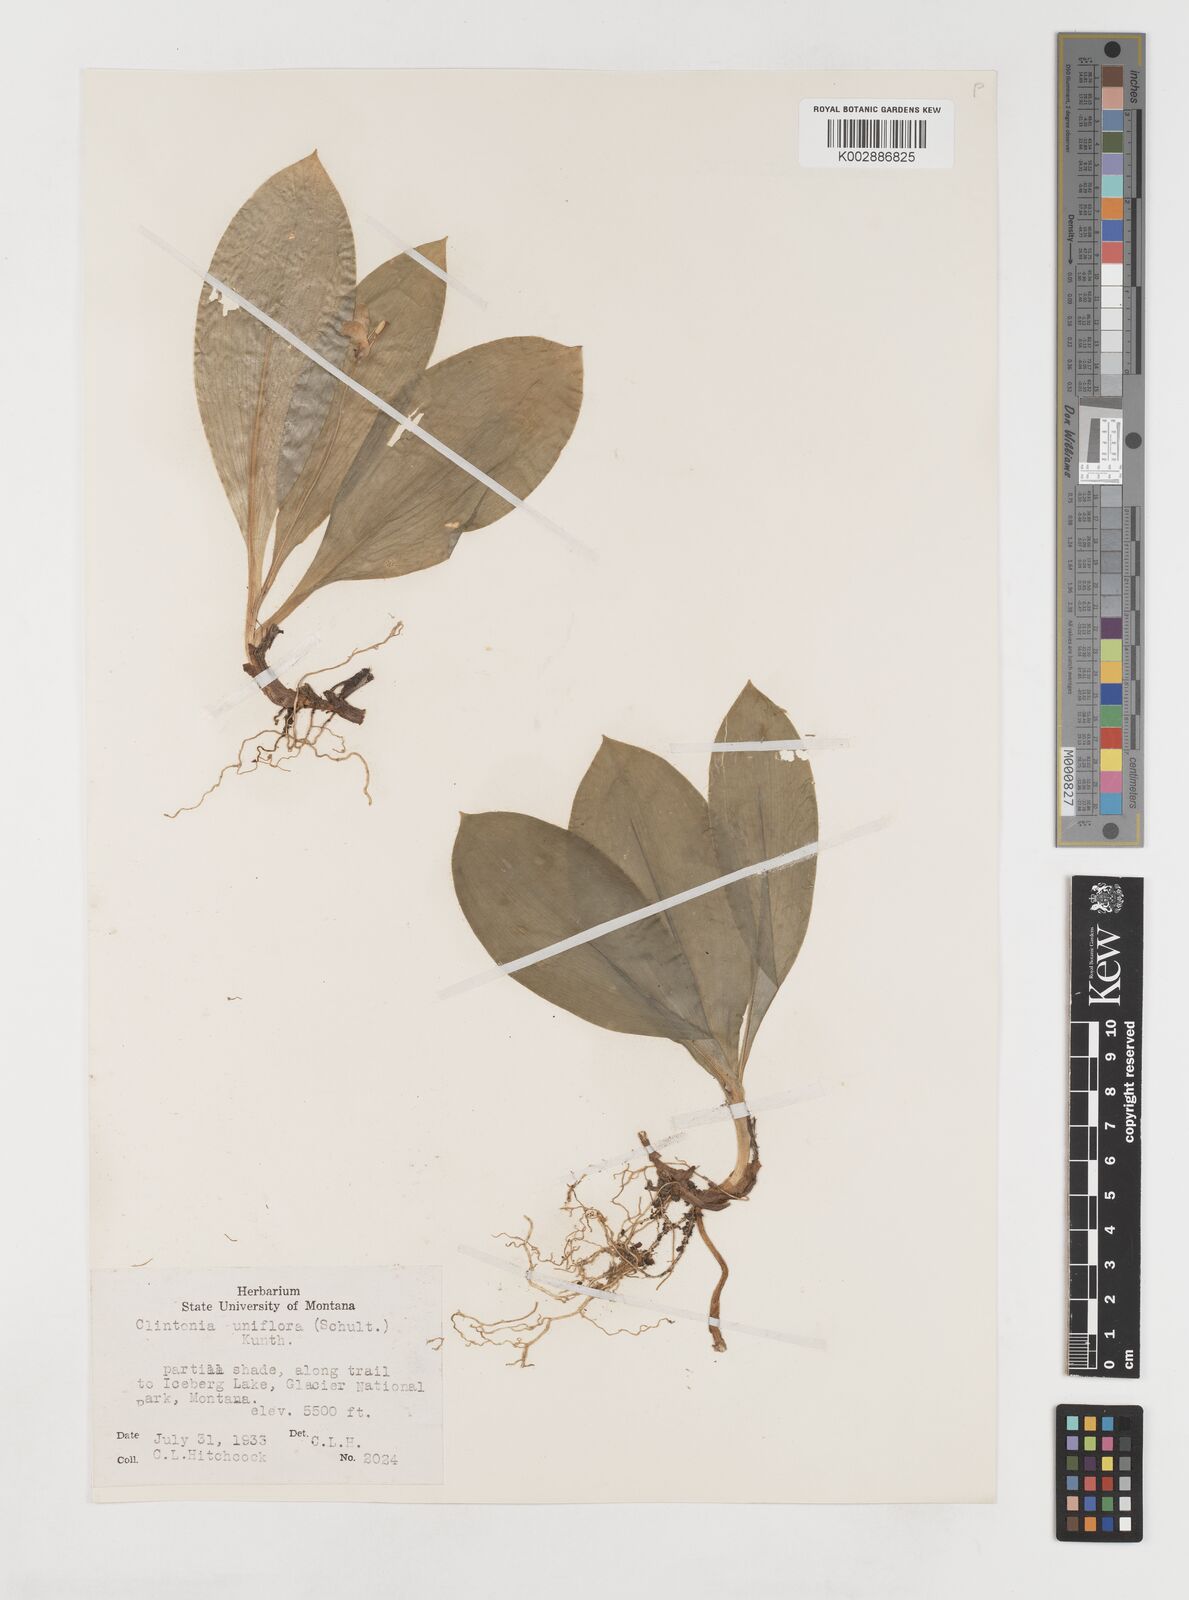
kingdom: Plantae
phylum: Tracheophyta
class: Liliopsida
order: Liliales
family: Liliaceae
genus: Clintonia
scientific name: Clintonia uniflora
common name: Queen's cup
